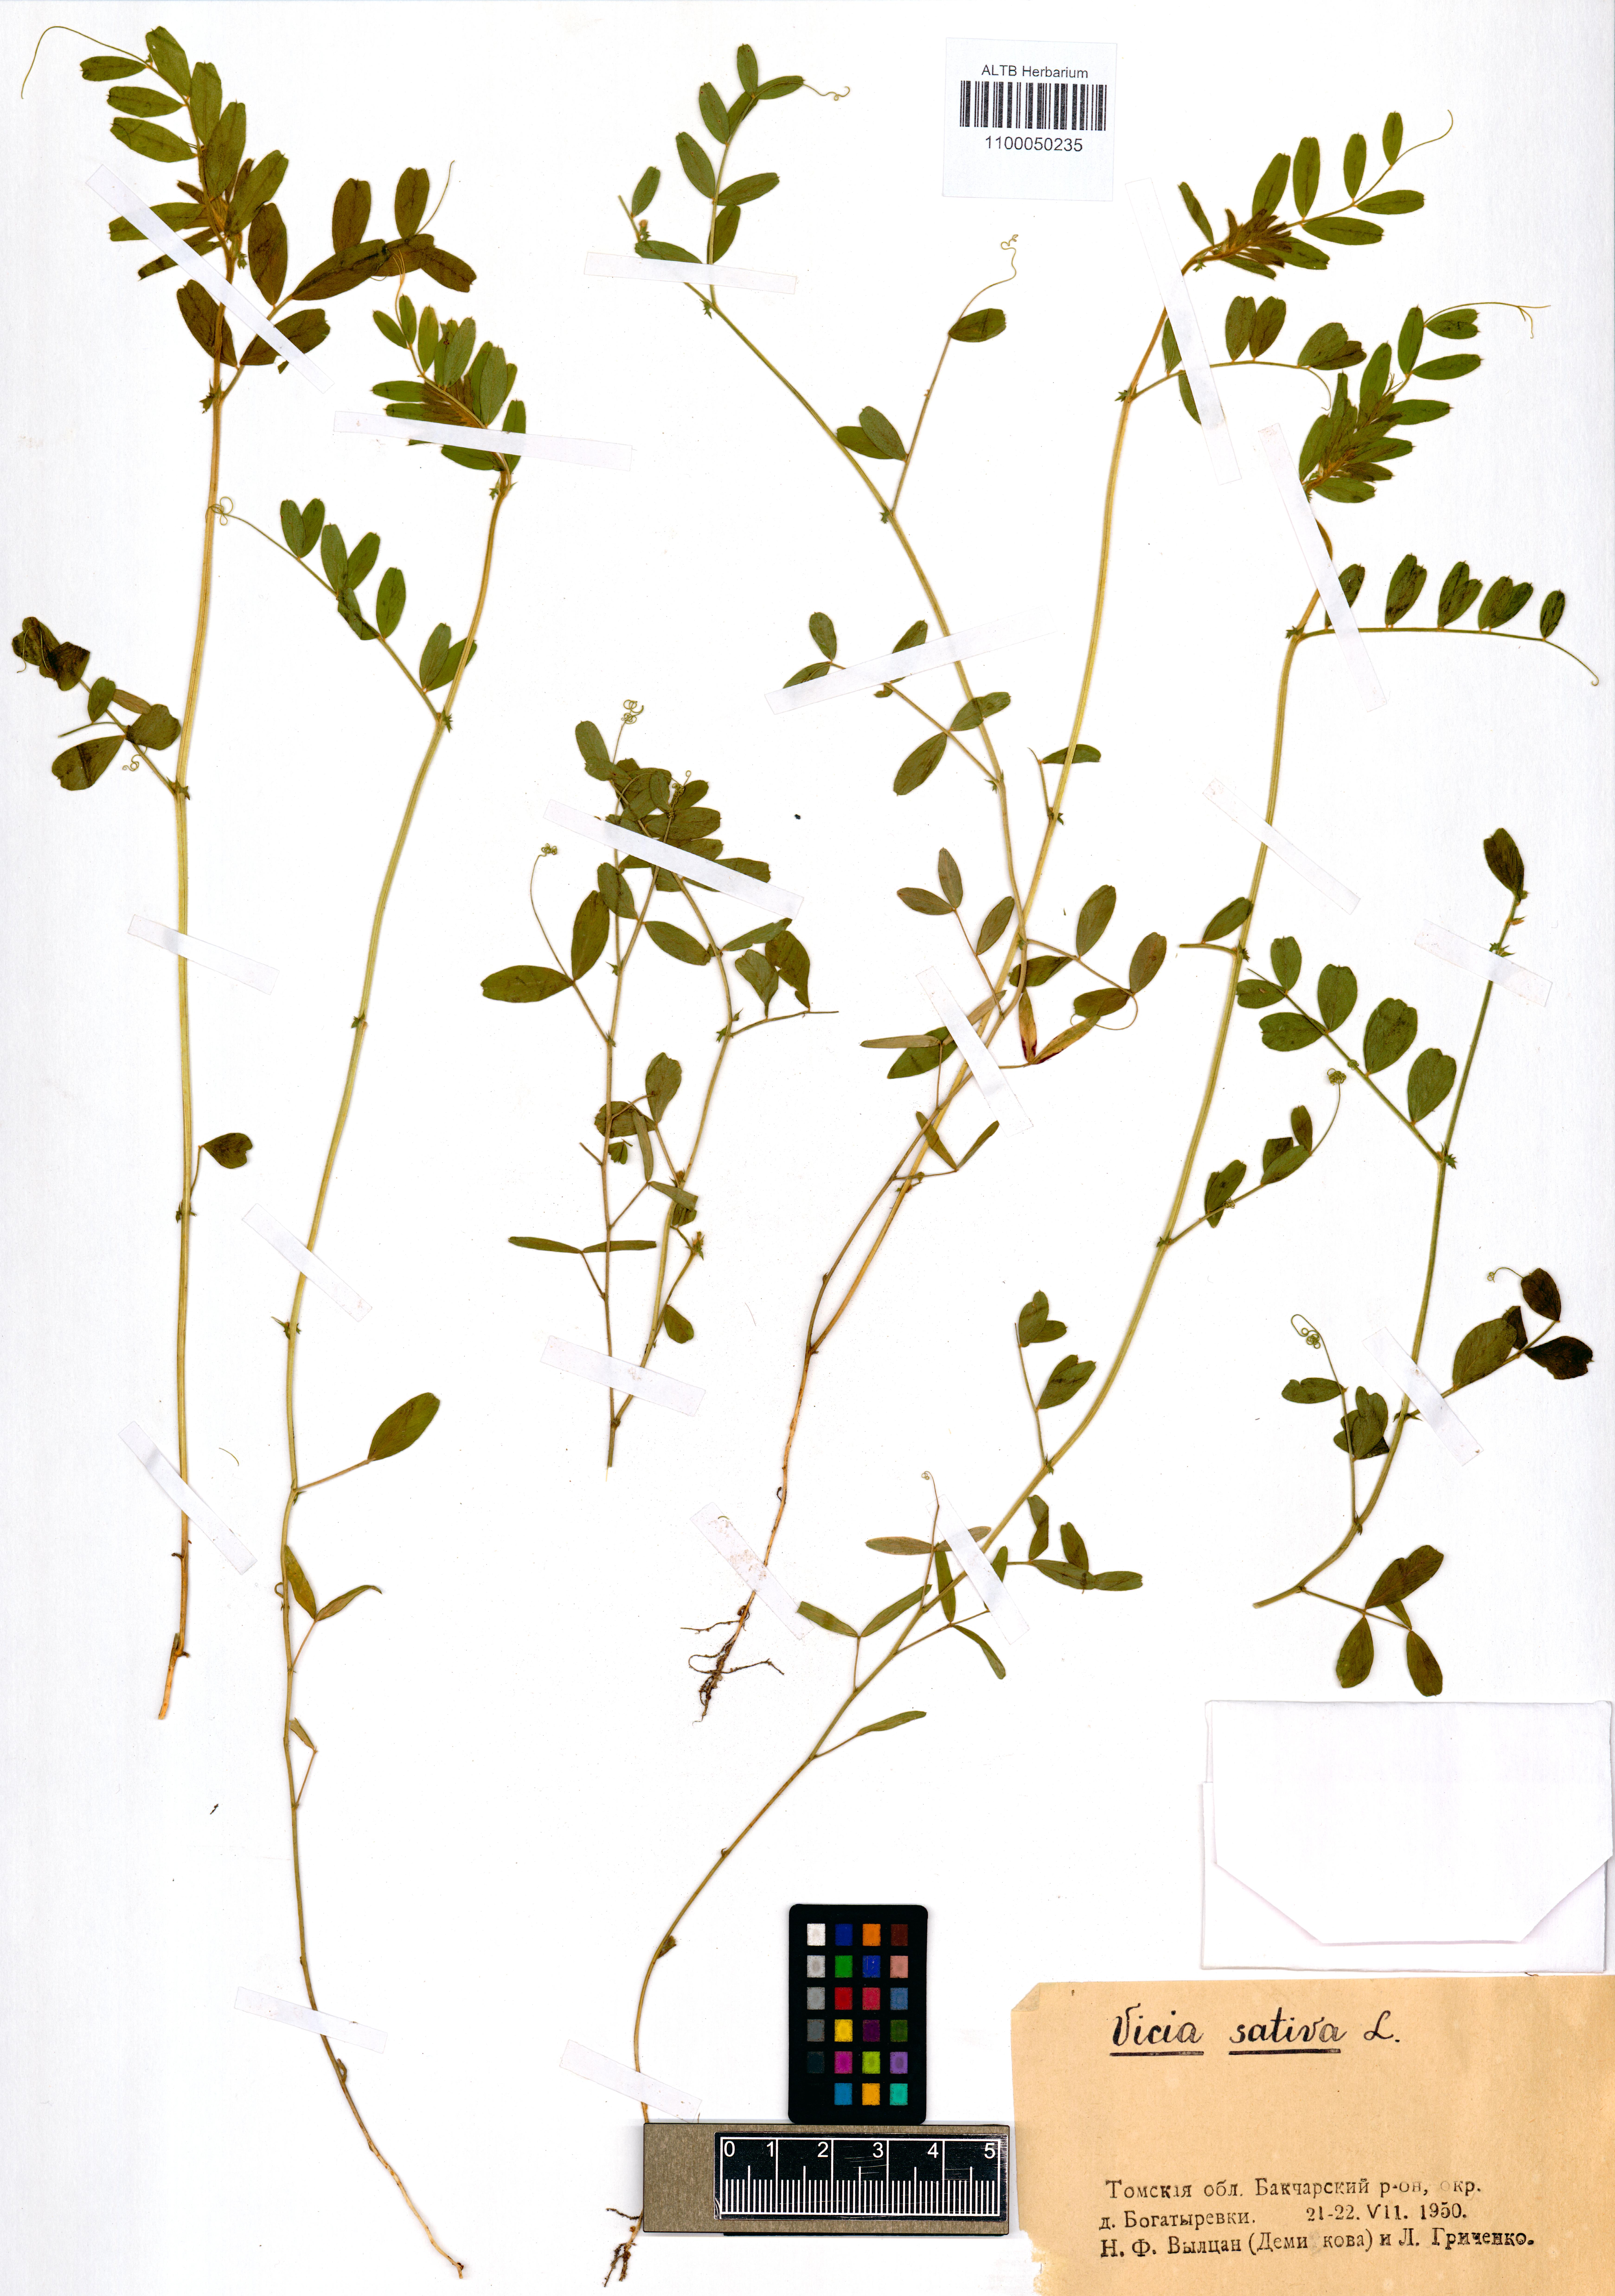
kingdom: Plantae
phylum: Tracheophyta
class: Magnoliopsida
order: Fabales
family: Fabaceae
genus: Vicia
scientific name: Vicia sativa
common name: Garden vetch
